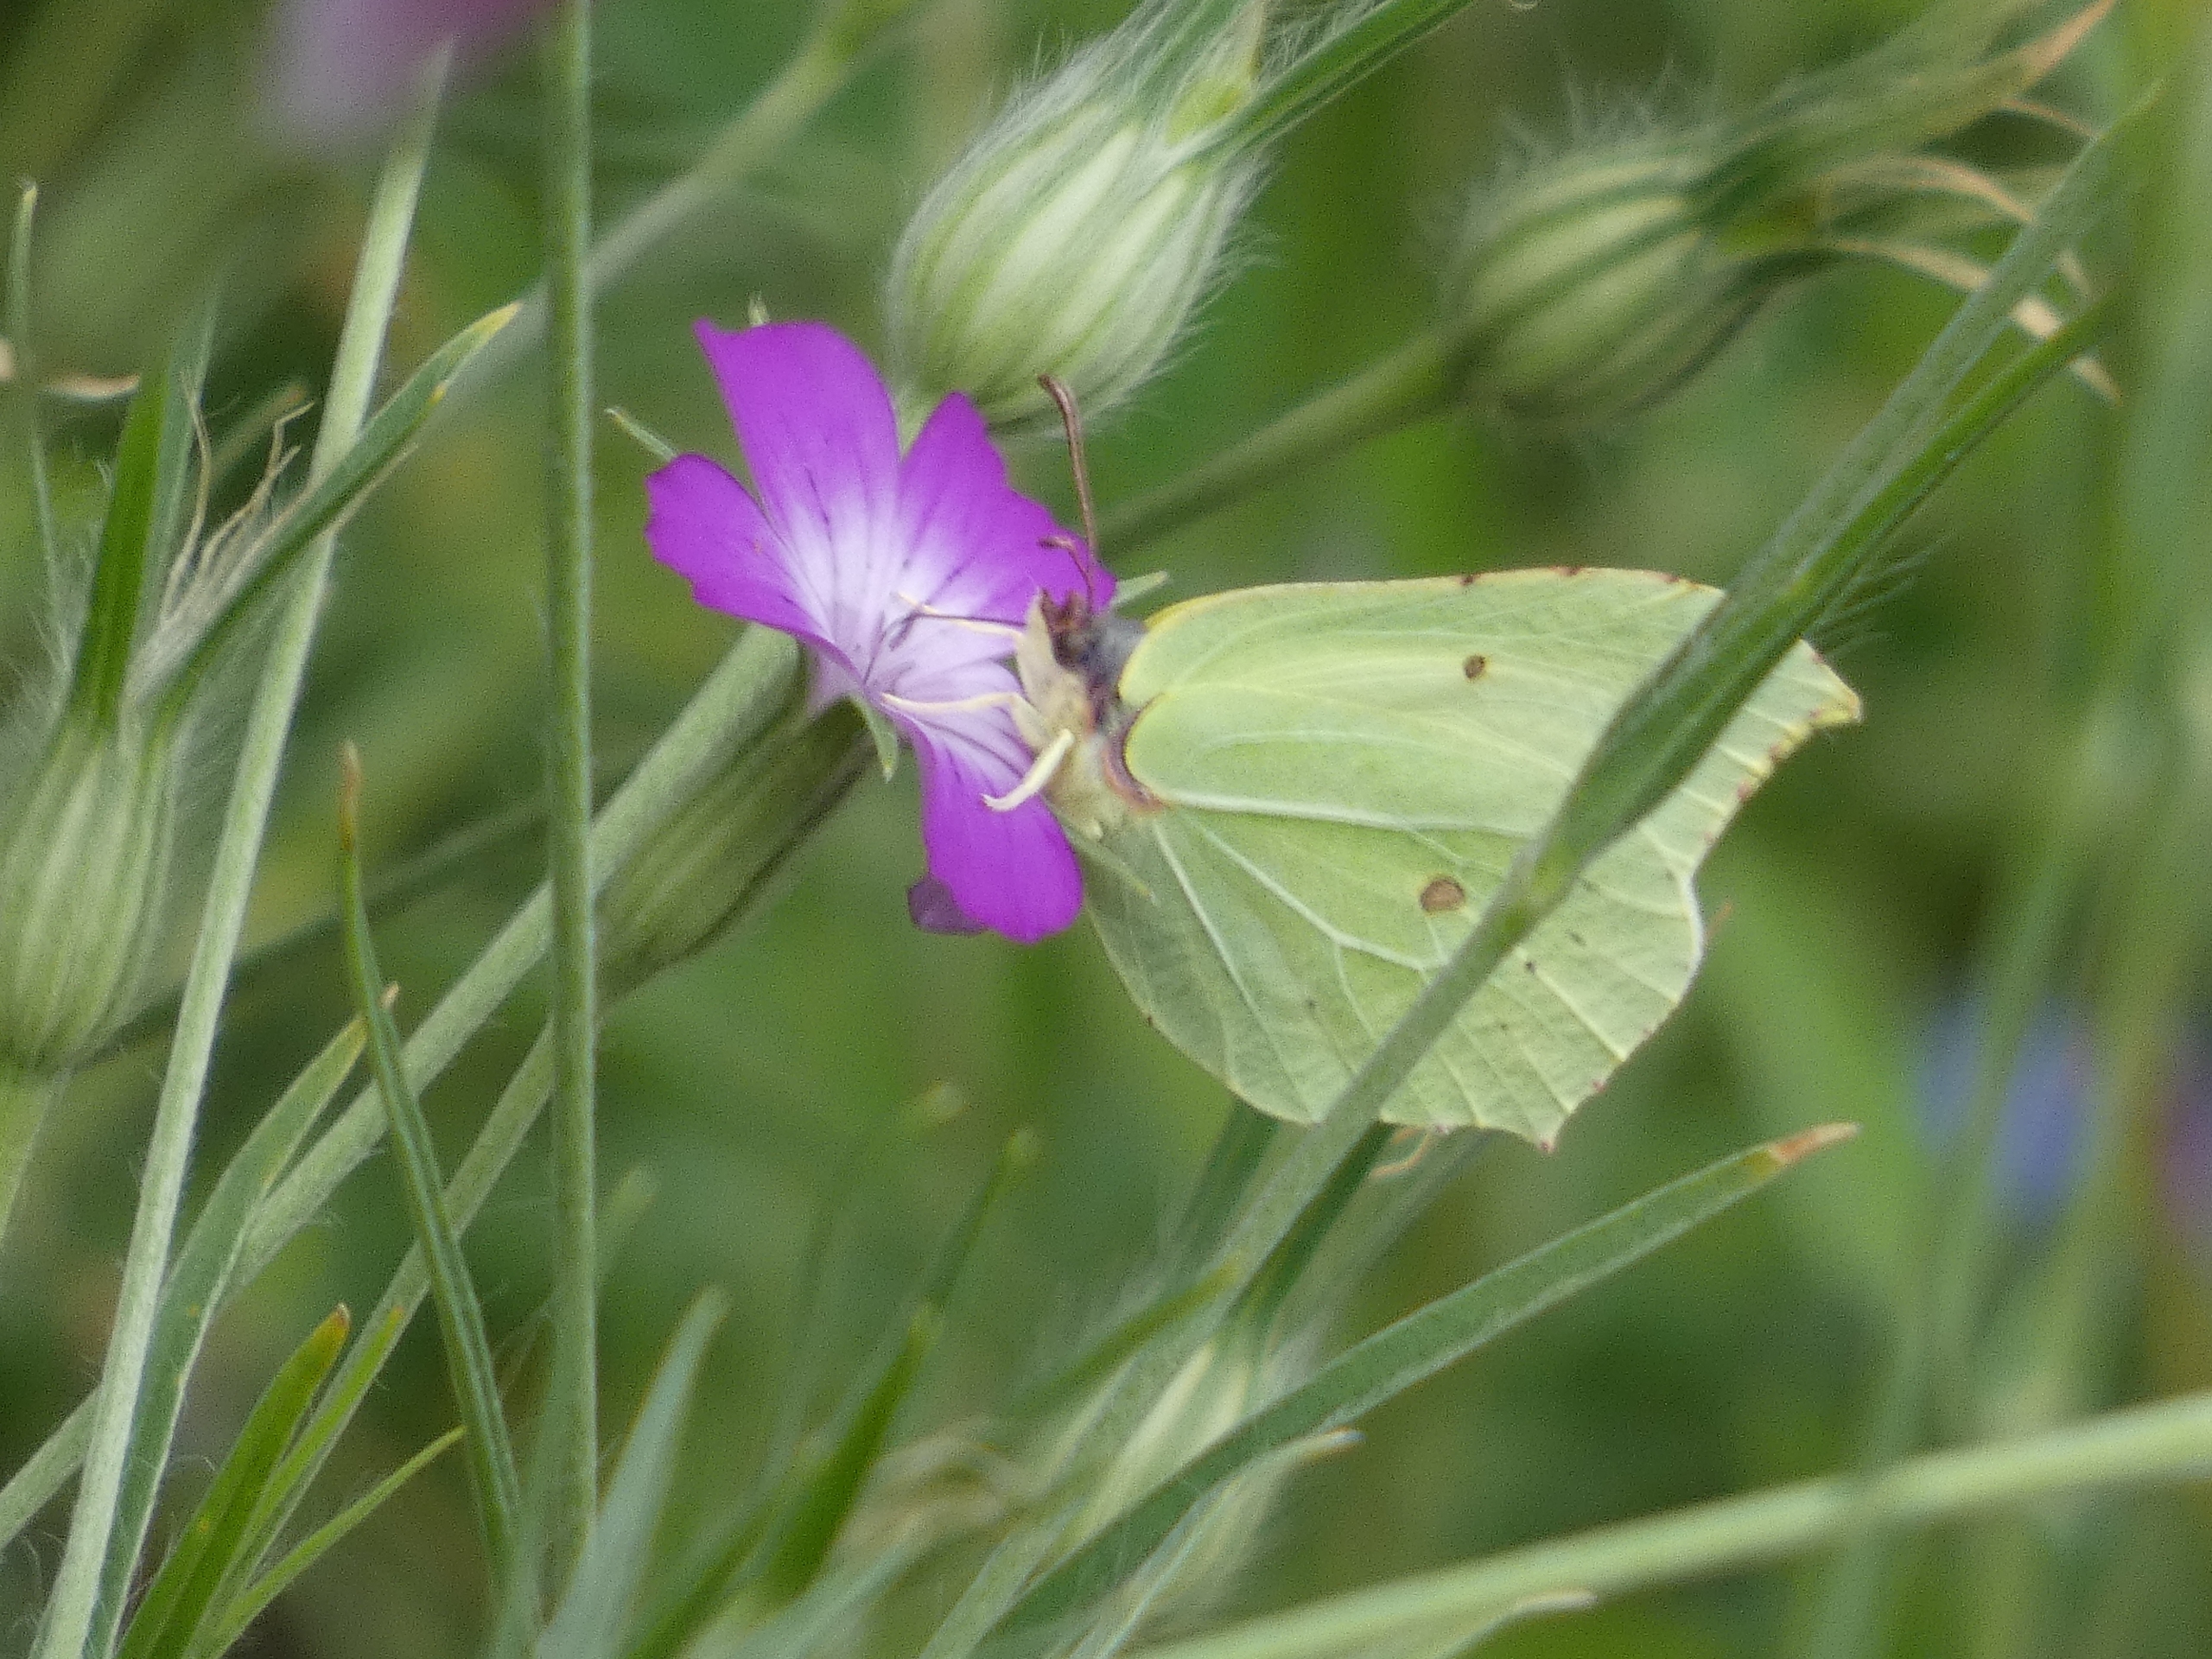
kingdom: Animalia
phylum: Arthropoda
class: Insecta
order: Lepidoptera
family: Pieridae
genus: Gonepteryx
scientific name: Gonepteryx rhamni
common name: Citronsommerfugl
